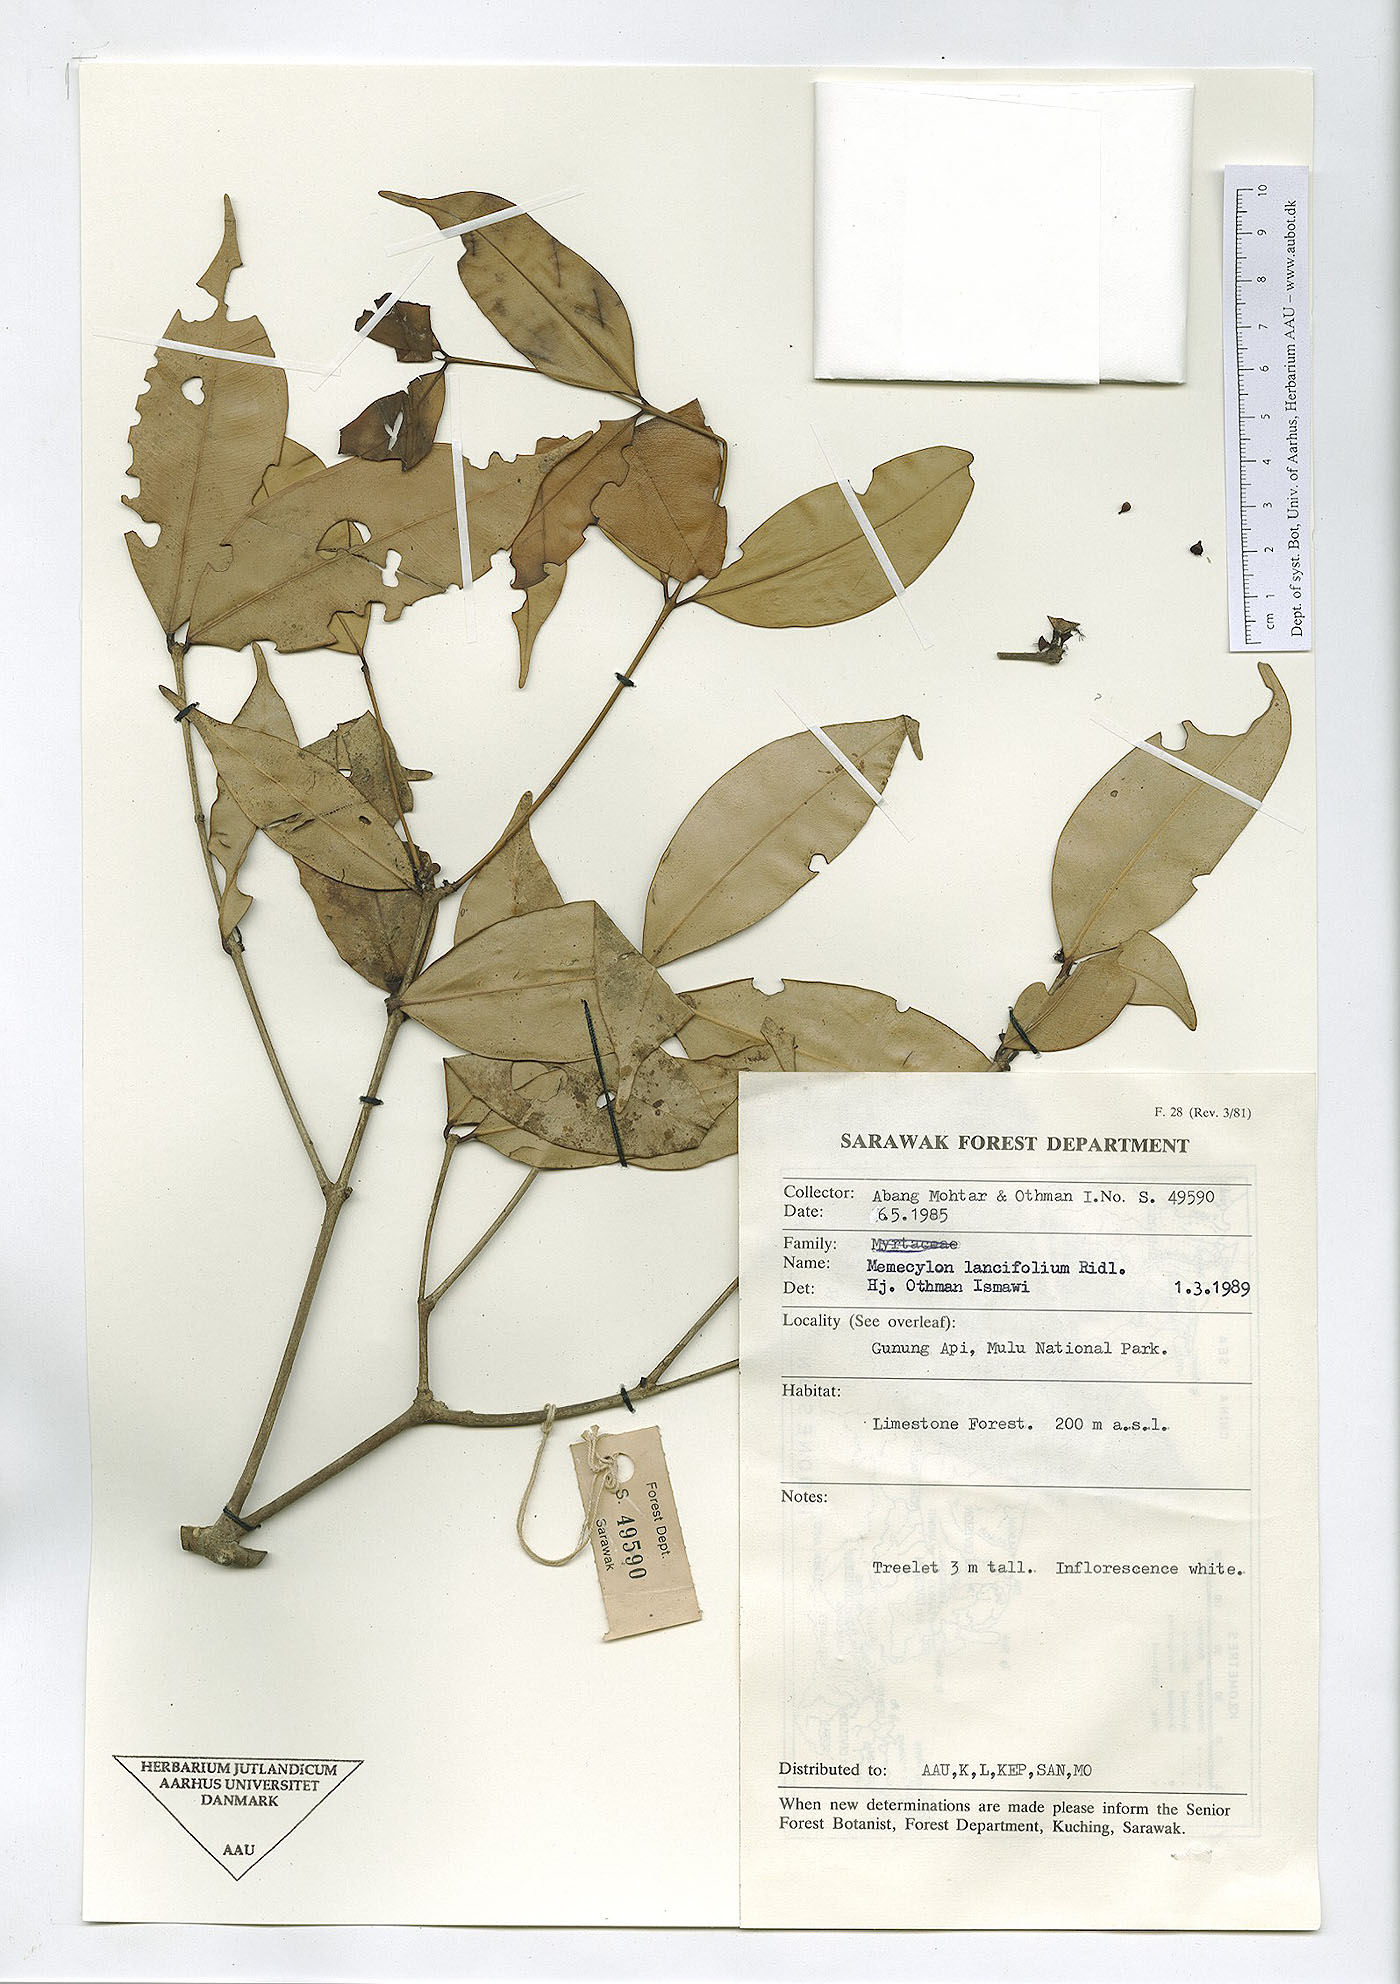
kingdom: Plantae
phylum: Tracheophyta
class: Magnoliopsida
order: Myrtales
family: Melastomataceae
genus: Memecylon
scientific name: Memecylon lancifolium
